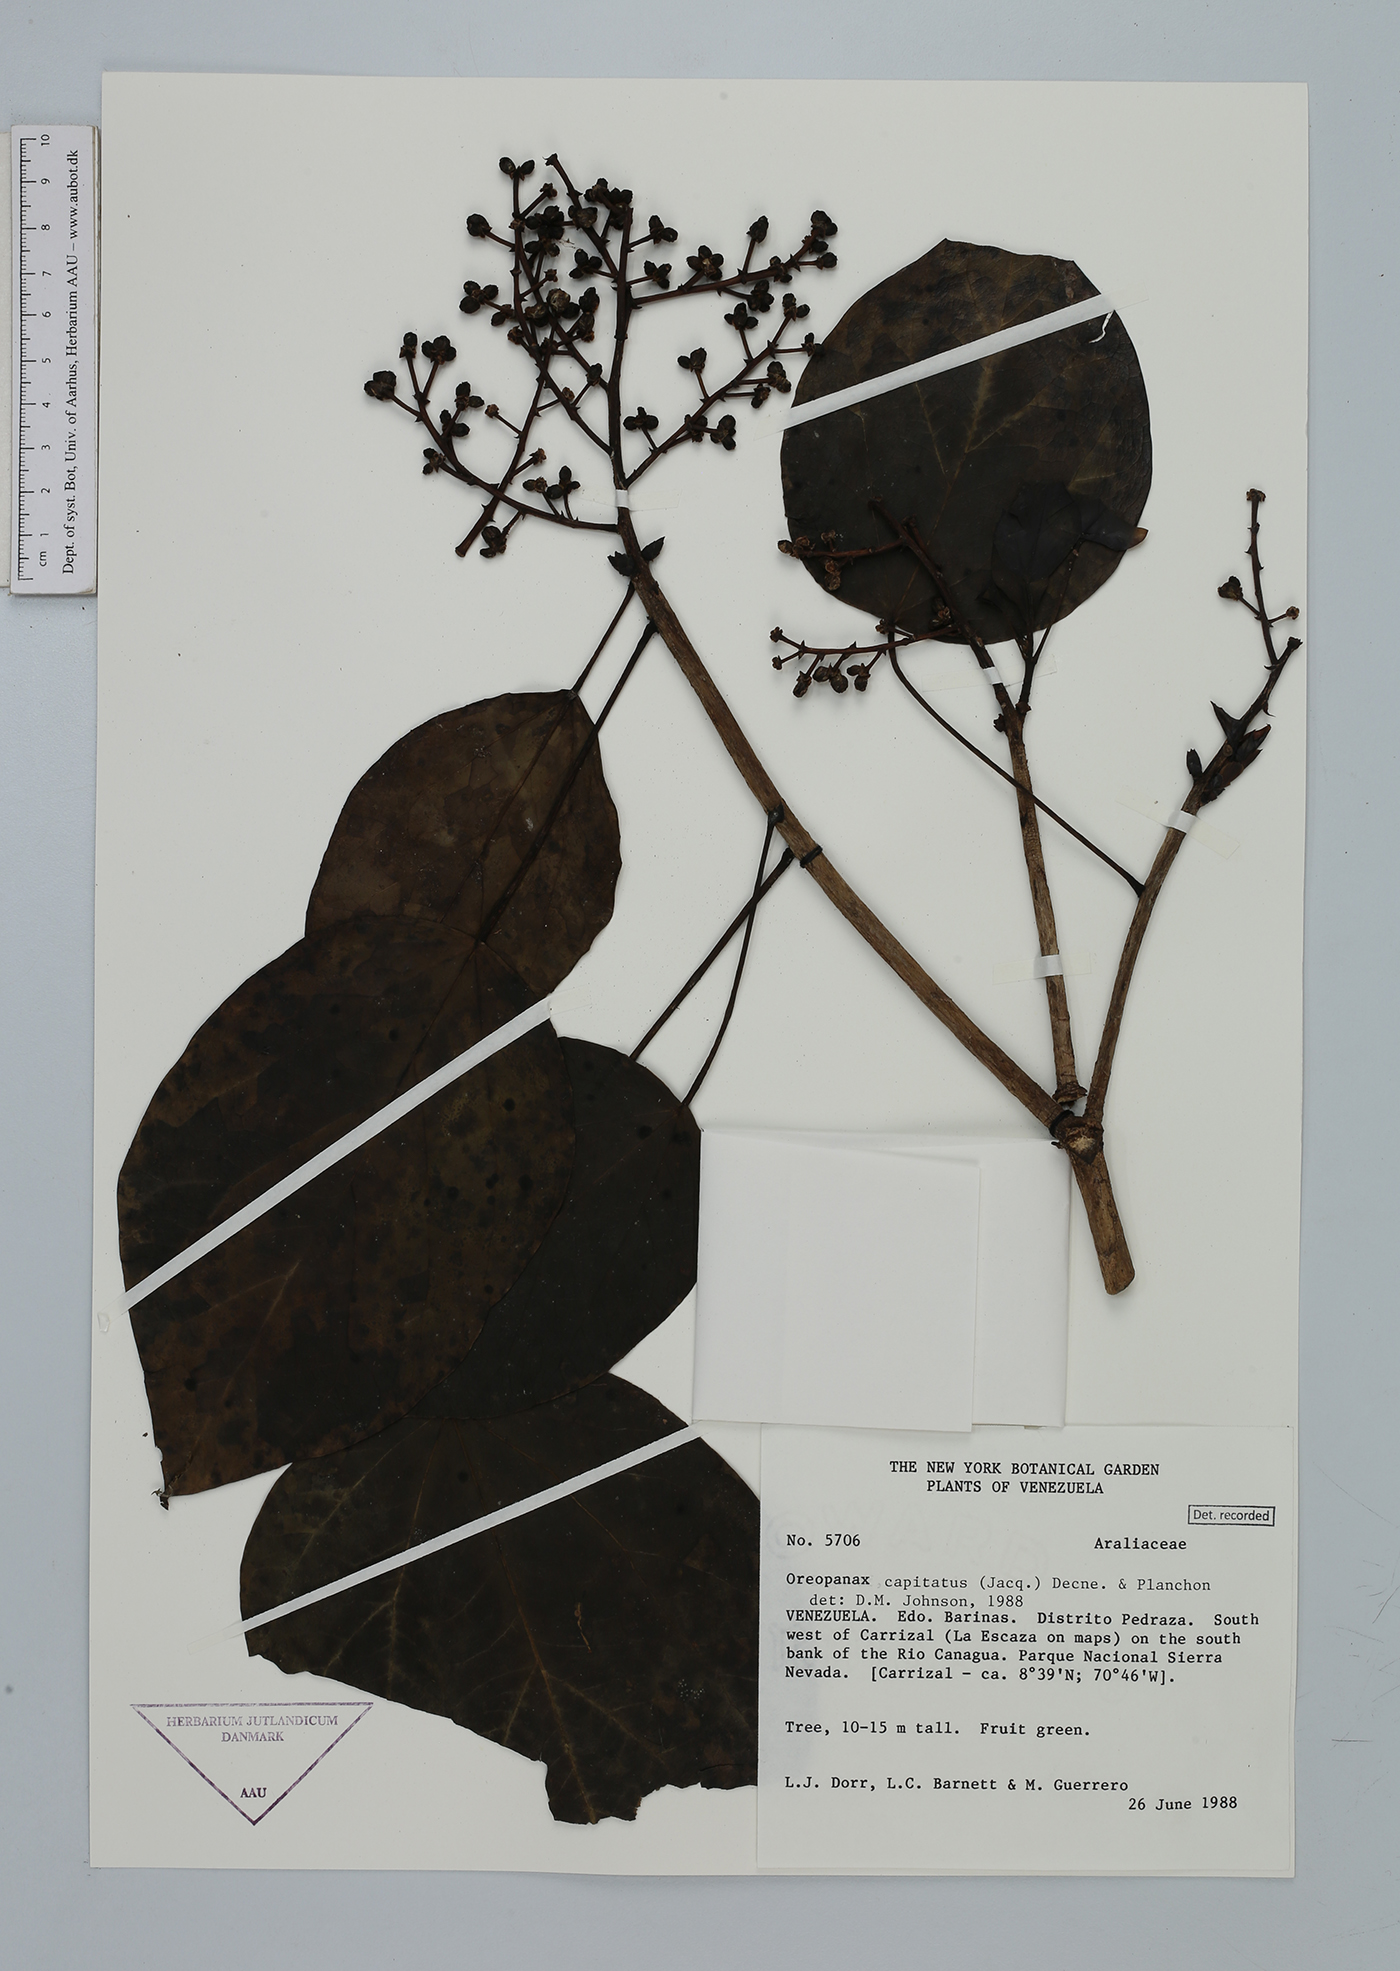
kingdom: Plantae
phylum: Tracheophyta
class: Magnoliopsida
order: Apiales
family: Araliaceae
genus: Oreopanax
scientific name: Oreopanax capitatus
